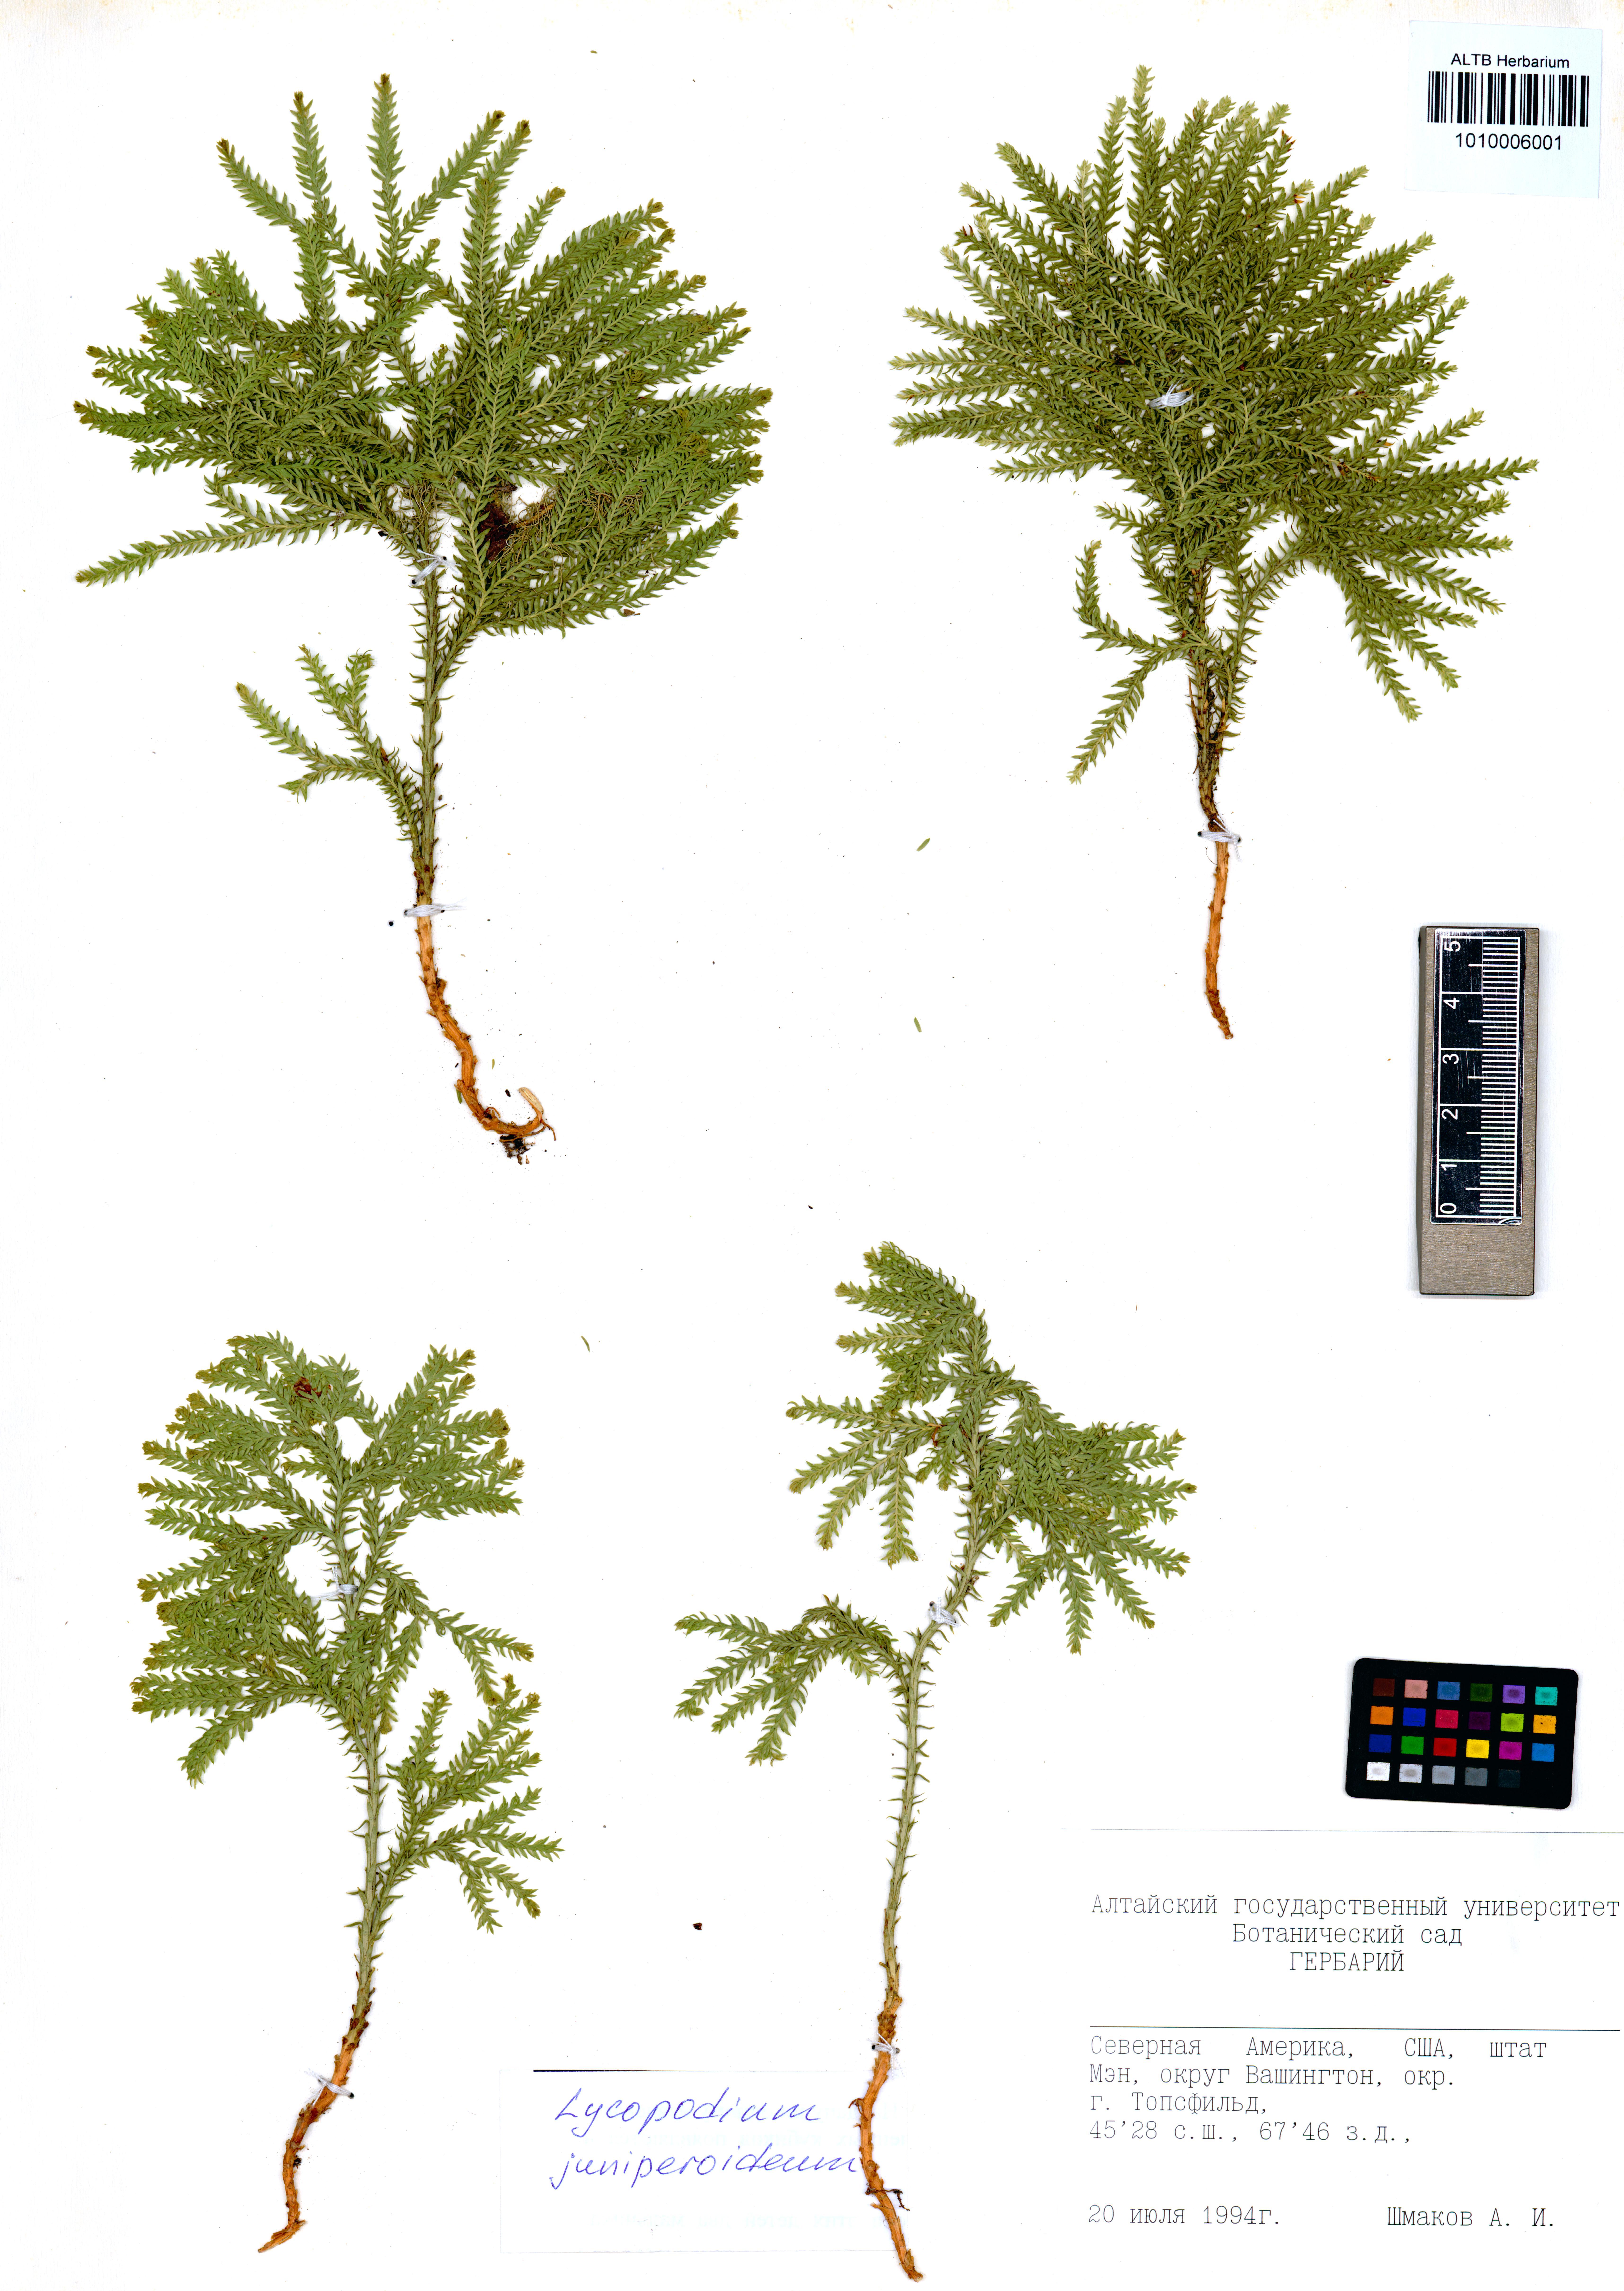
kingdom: Plantae
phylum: Tracheophyta
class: Lycopodiopsida
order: Lycopodiales
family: Lycopodiaceae
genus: Dendrolycopodium
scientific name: Dendrolycopodium juniperoideum
